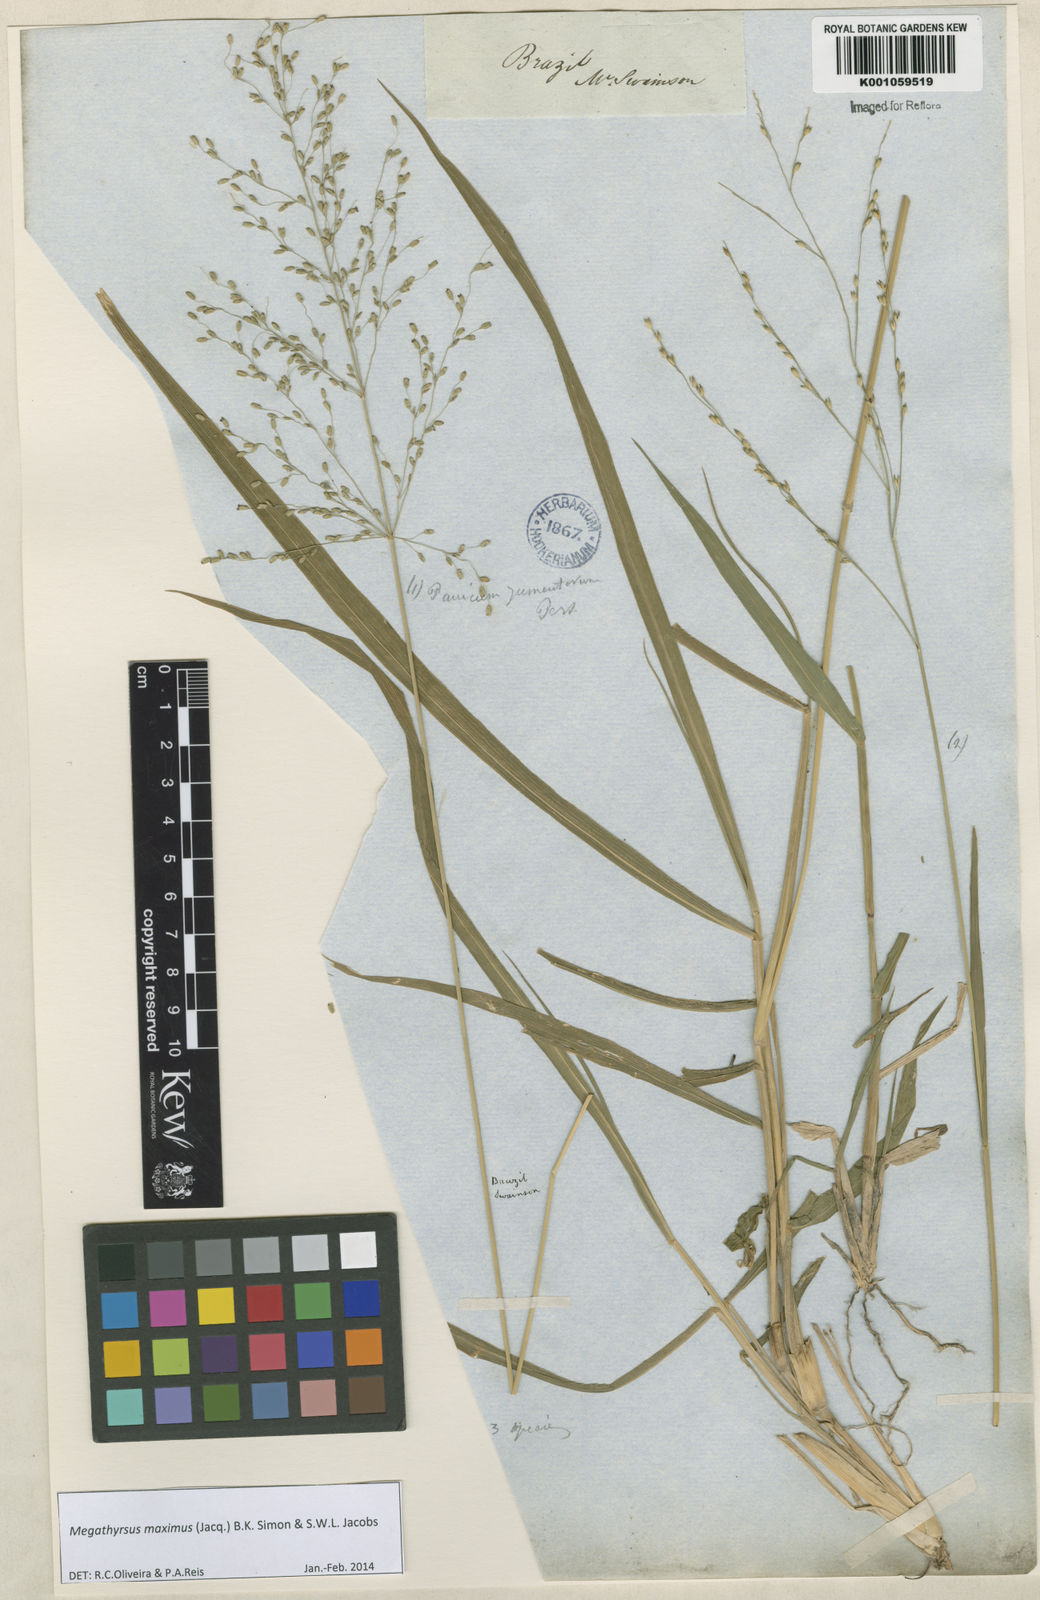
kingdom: Plantae
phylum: Tracheophyta
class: Liliopsida
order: Poales
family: Poaceae
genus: Megathyrsus
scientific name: Megathyrsus maximus
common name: Guineagrass
